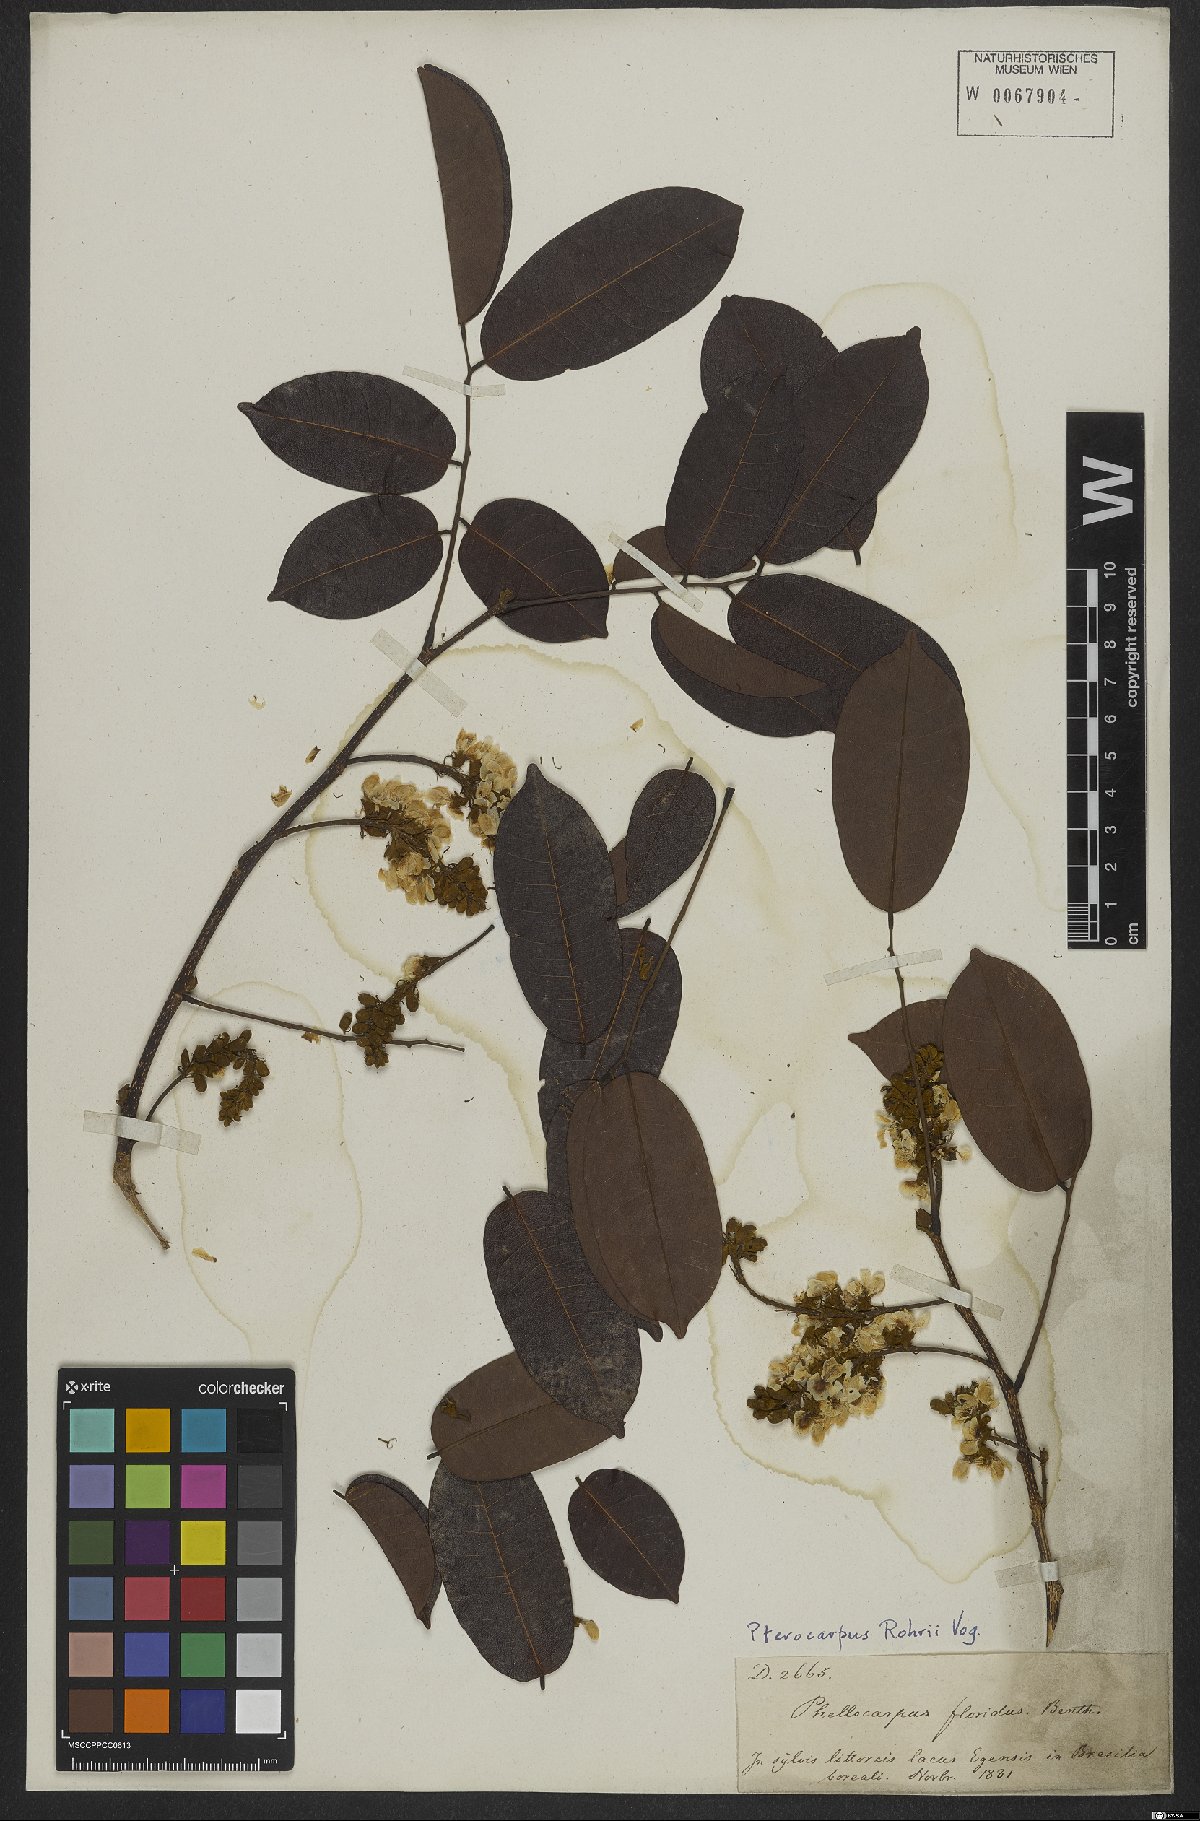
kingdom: Plantae
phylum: Tracheophyta
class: Magnoliopsida
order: Fabales
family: Fabaceae
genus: Pterocarpus
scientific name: Pterocarpus rohrii
